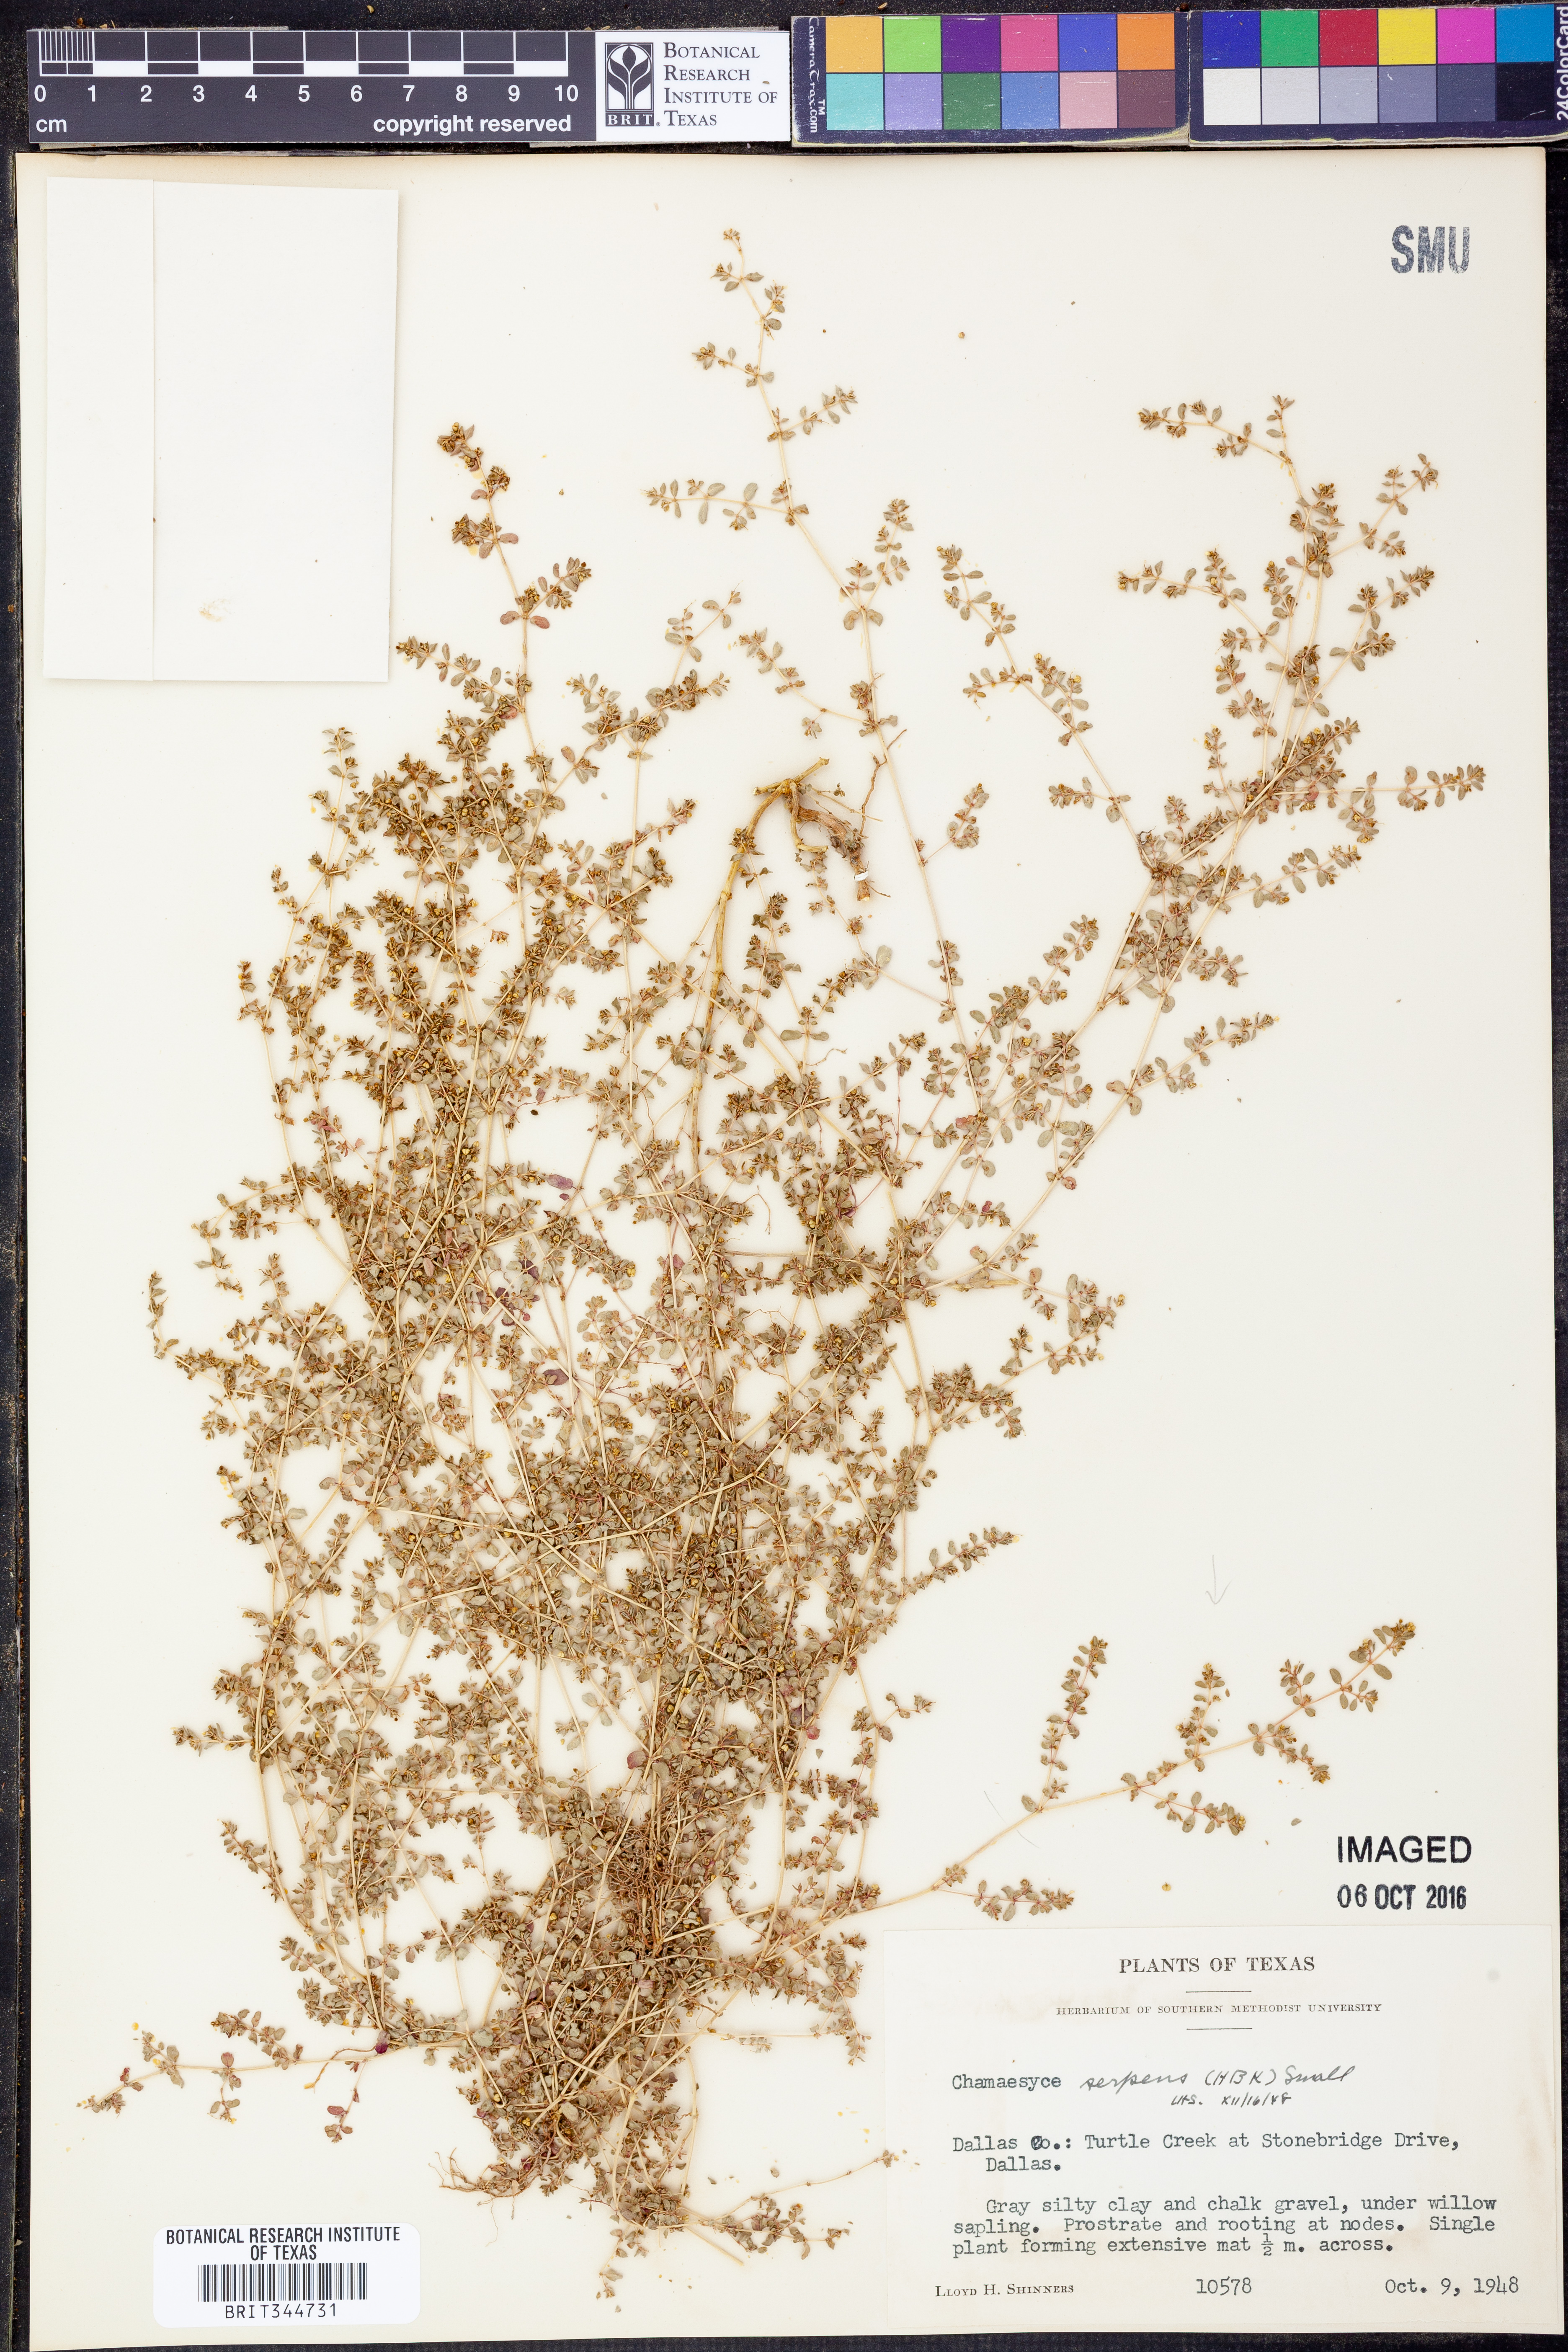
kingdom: Plantae
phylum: Tracheophyta
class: Magnoliopsida
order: Malpighiales
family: Euphorbiaceae
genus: Euphorbia
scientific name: Euphorbia serpens
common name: Matted sandmat
